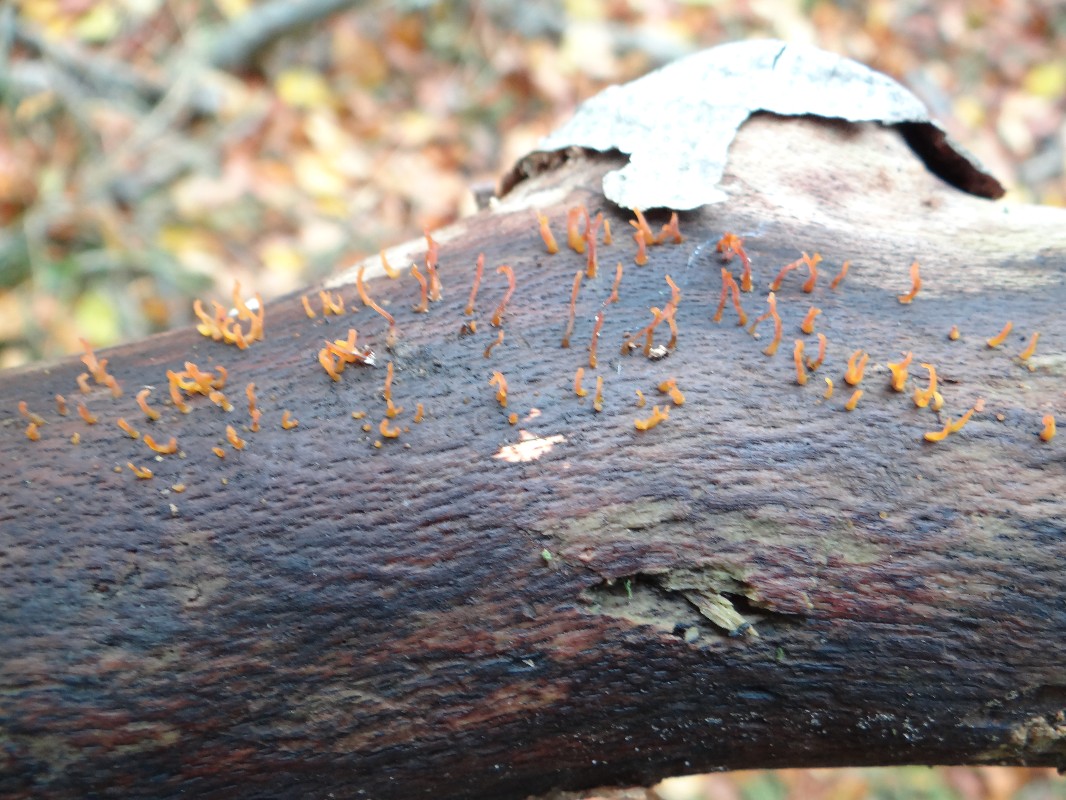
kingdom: Fungi
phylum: Basidiomycota
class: Dacrymycetes
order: Dacrymycetales
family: Dacrymycetaceae
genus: Calocera
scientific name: Calocera cornea
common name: liden guldgaffel
